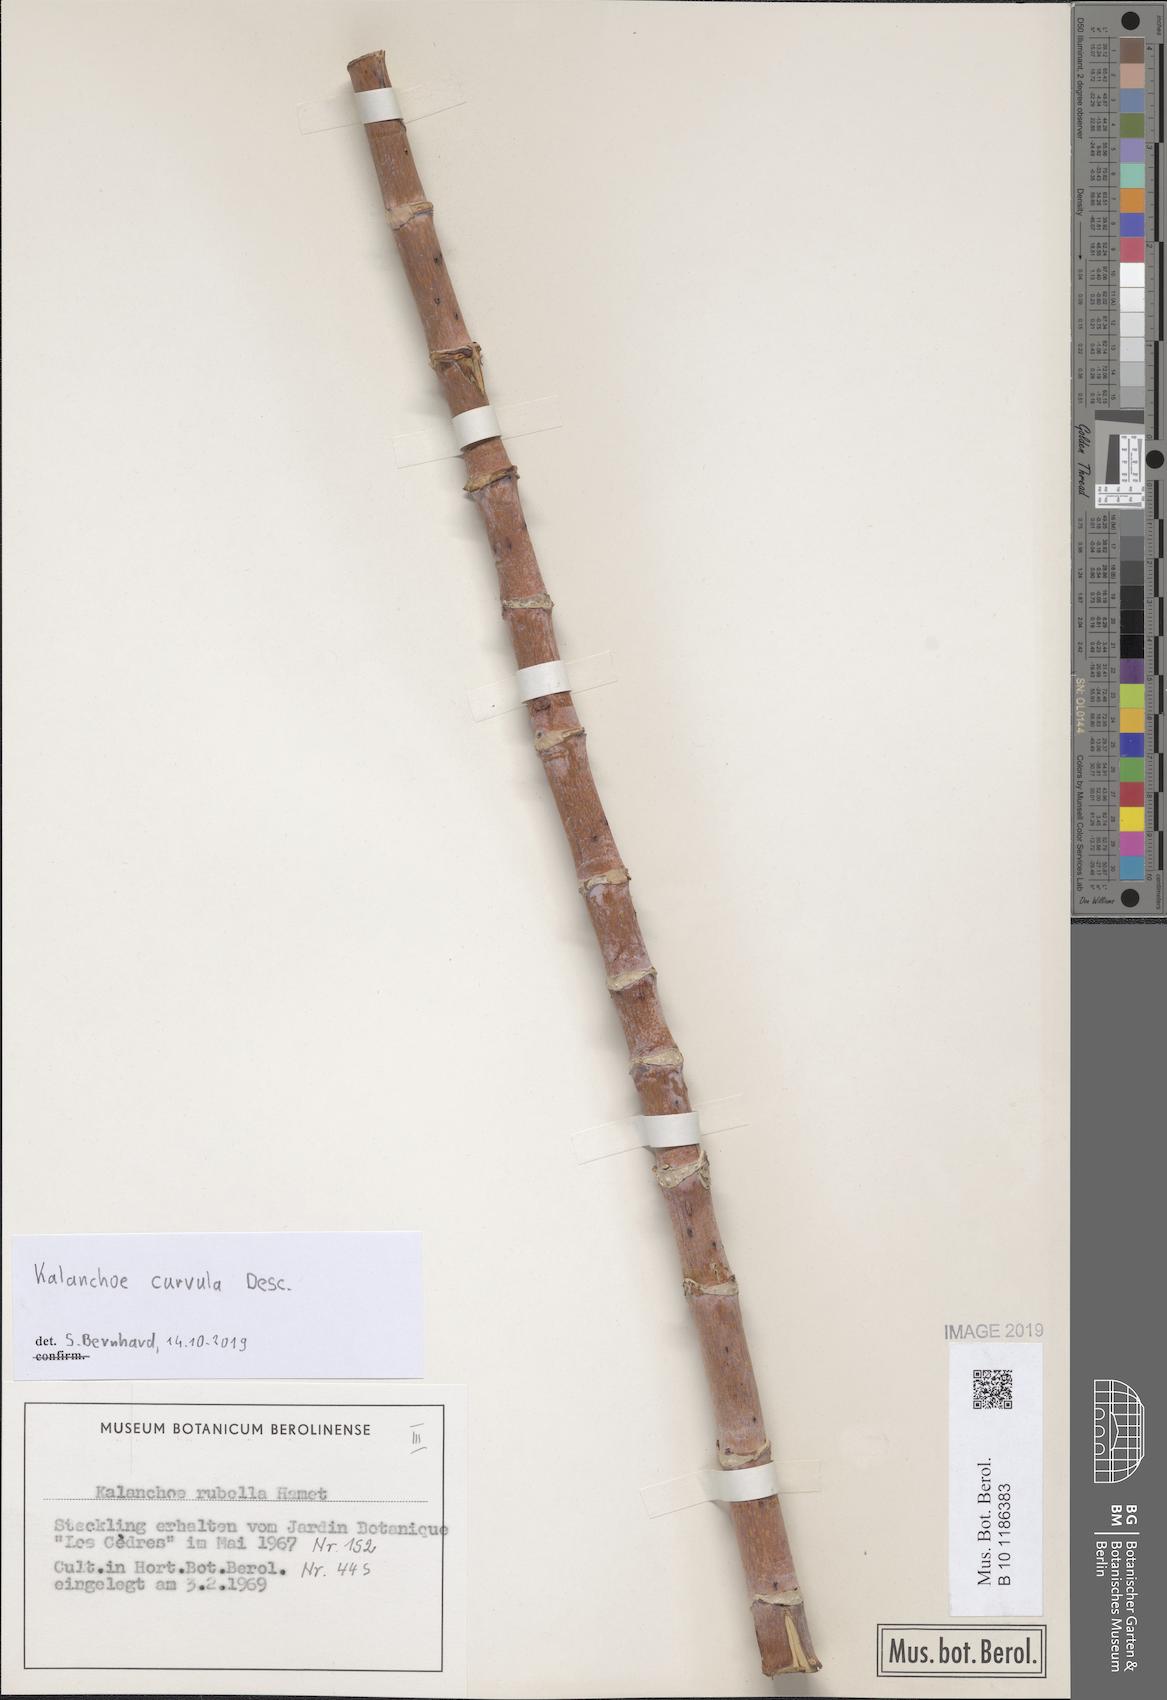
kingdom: Plantae
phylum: Tracheophyta
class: Magnoliopsida
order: Saxifragales
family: Crassulaceae
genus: Kalanchoe
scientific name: Kalanchoe curvula
